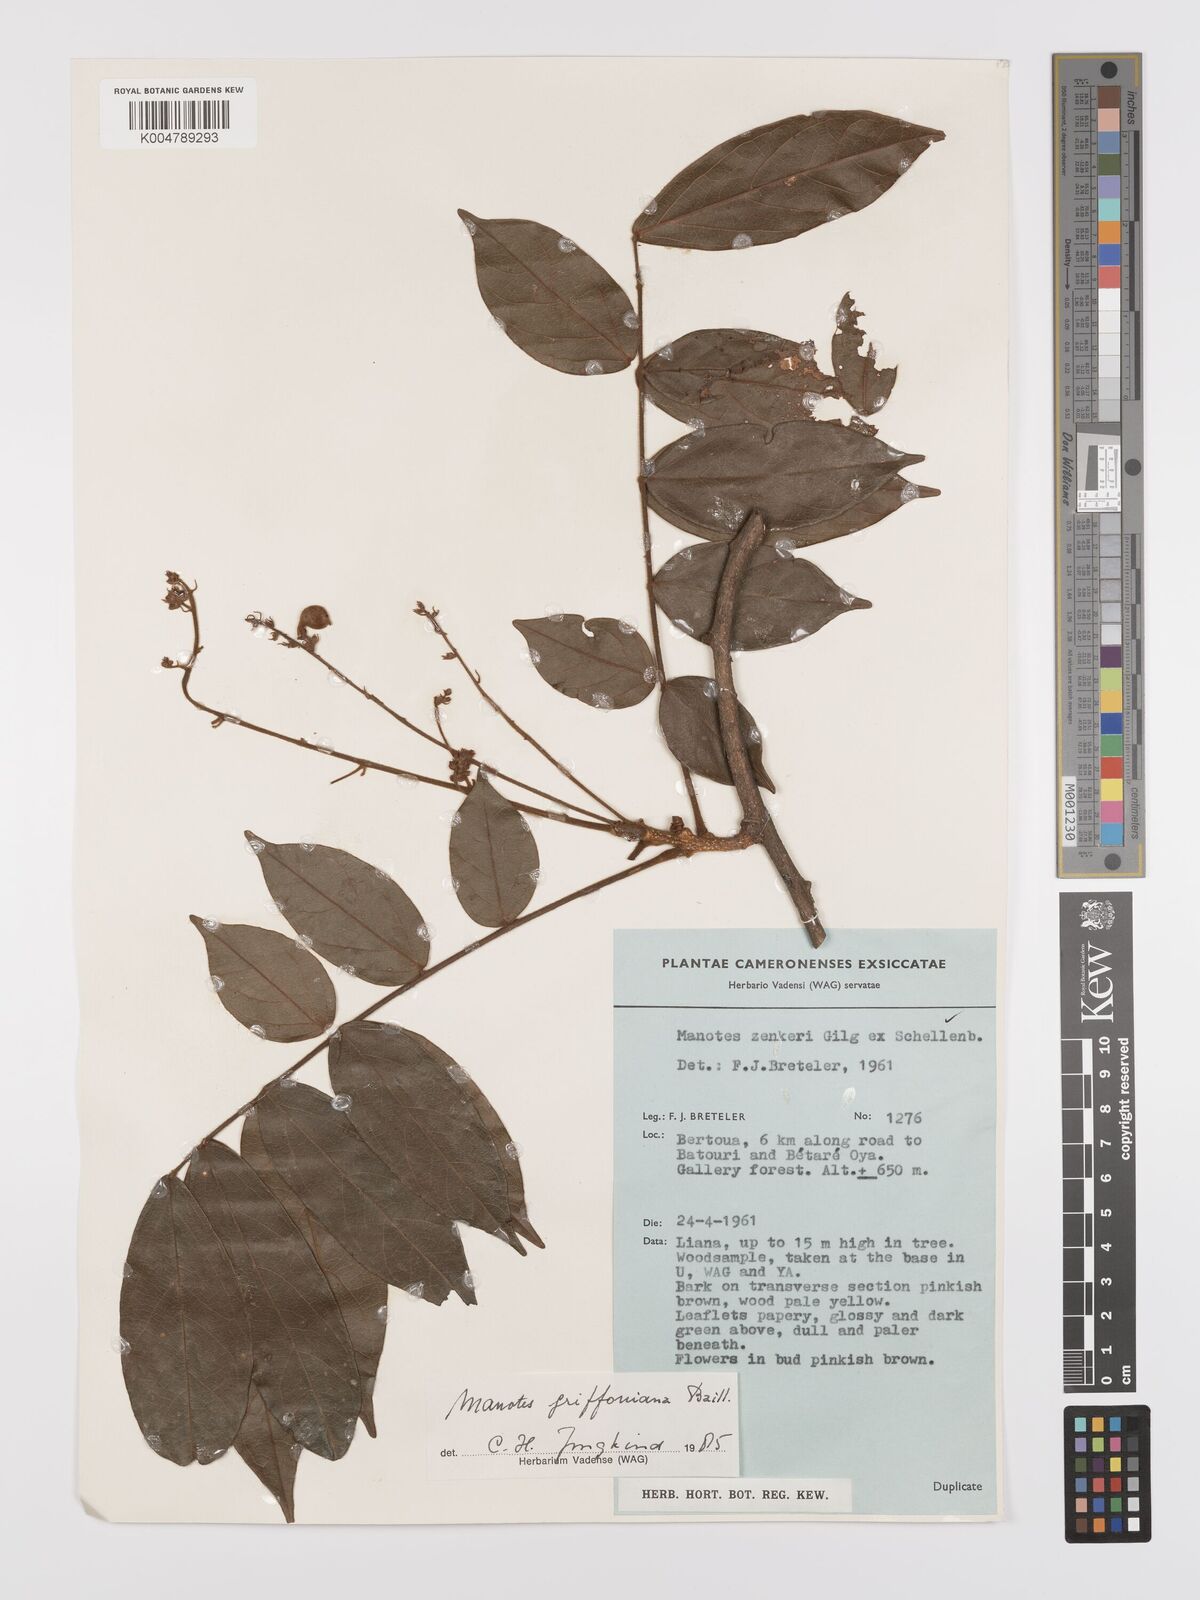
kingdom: Plantae
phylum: Tracheophyta
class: Magnoliopsida
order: Oxalidales
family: Connaraceae
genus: Manotes
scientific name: Manotes griffoniana
